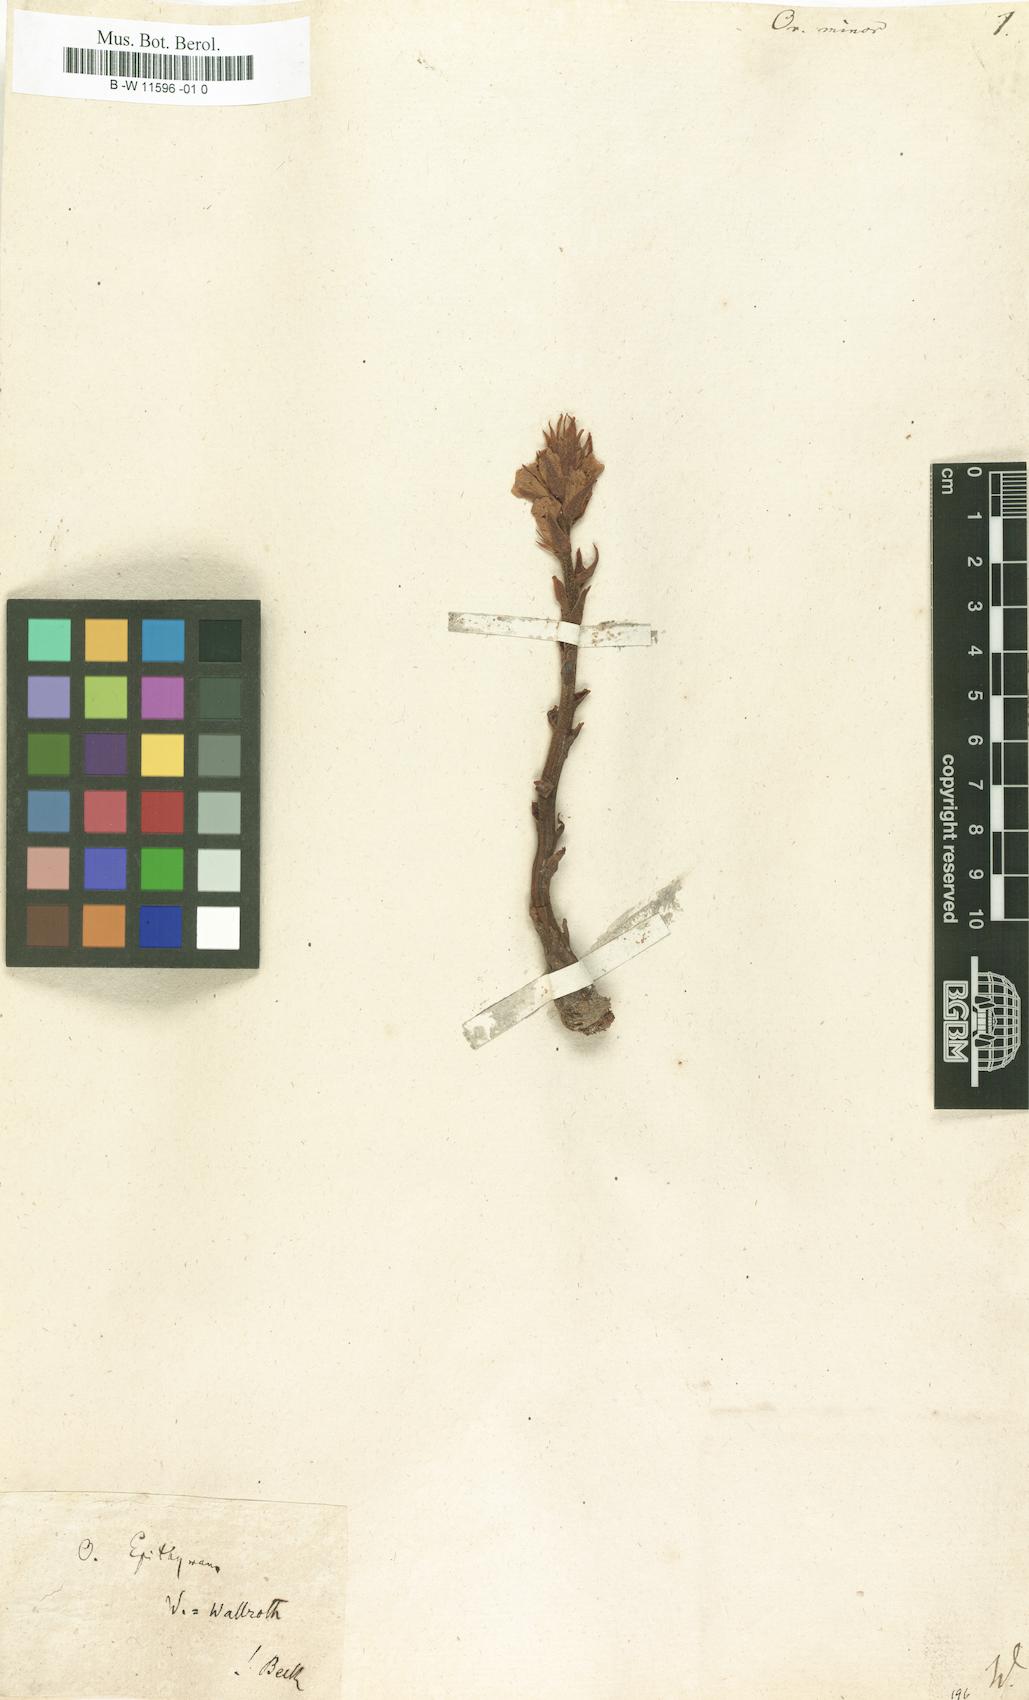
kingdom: Plantae
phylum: Tracheophyta
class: Magnoliopsida
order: Lamiales
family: Orobanchaceae
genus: Orobanche
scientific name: Orobanche minor
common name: Common broomrape
